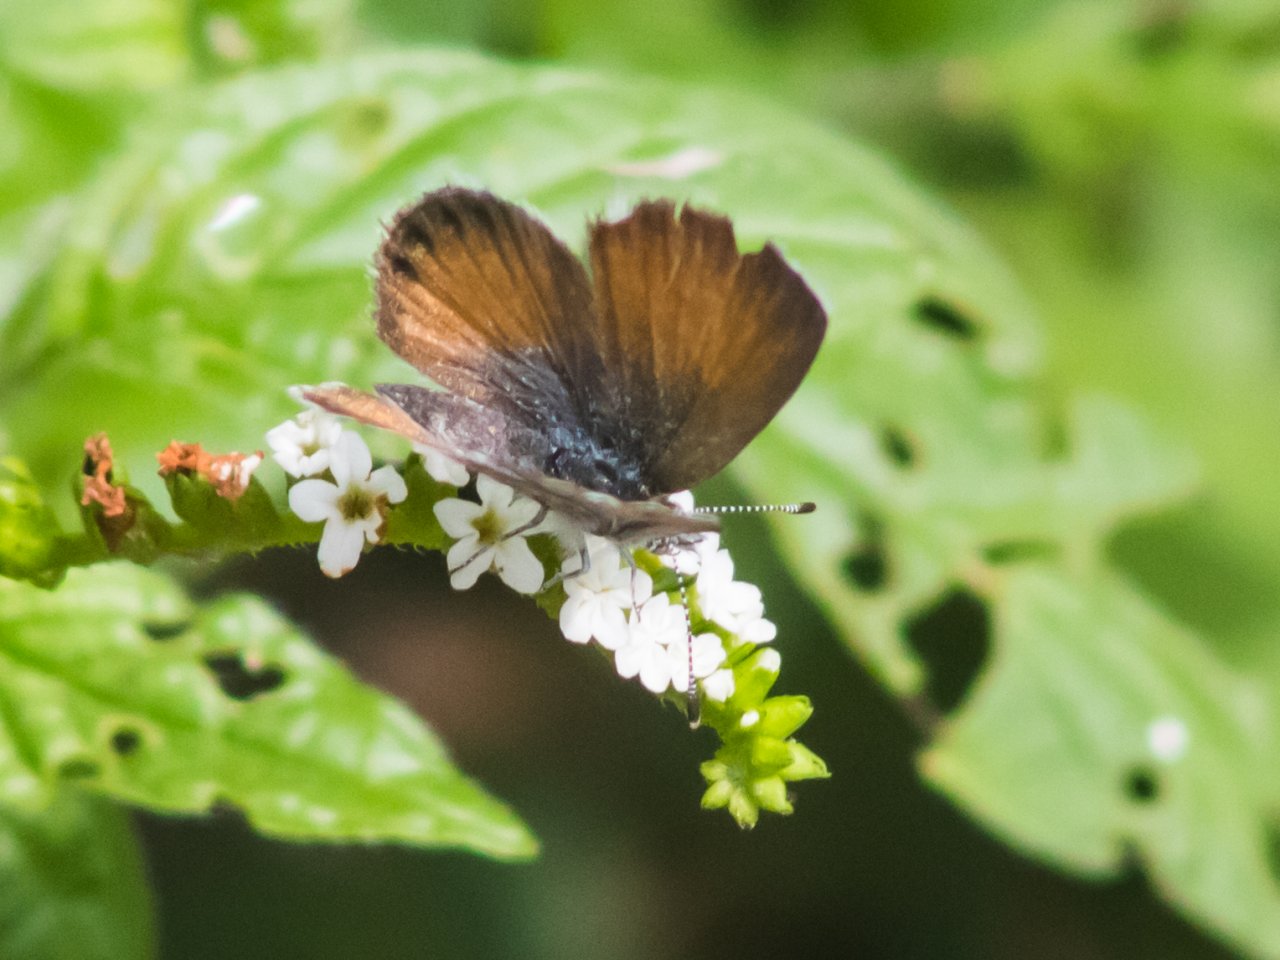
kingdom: Animalia
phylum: Arthropoda
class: Insecta
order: Lepidoptera
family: Lycaenidae
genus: Brephidium
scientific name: Brephidium exilis
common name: Western Pygmy-Blue
